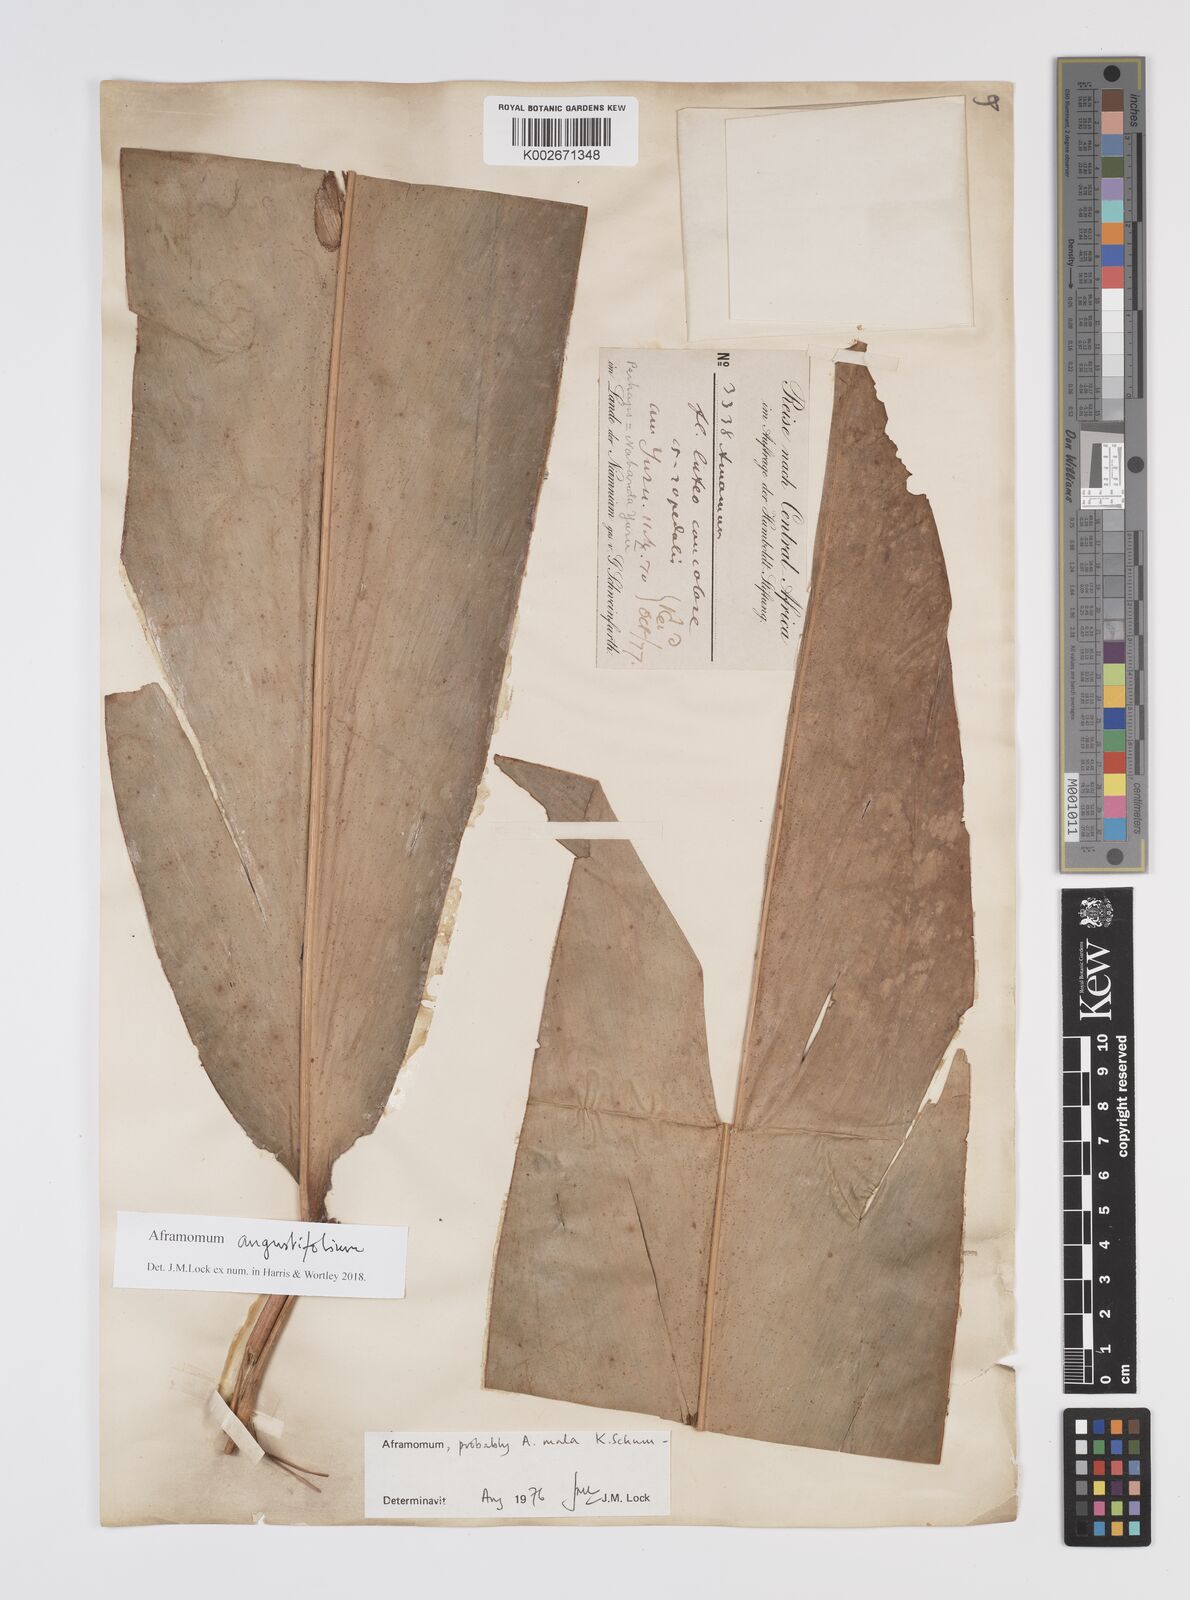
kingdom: Plantae
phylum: Tracheophyta
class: Liliopsida
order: Zingiberales
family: Zingiberaceae
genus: Aframomum
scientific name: Aframomum angustifolium
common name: Guinea grains
